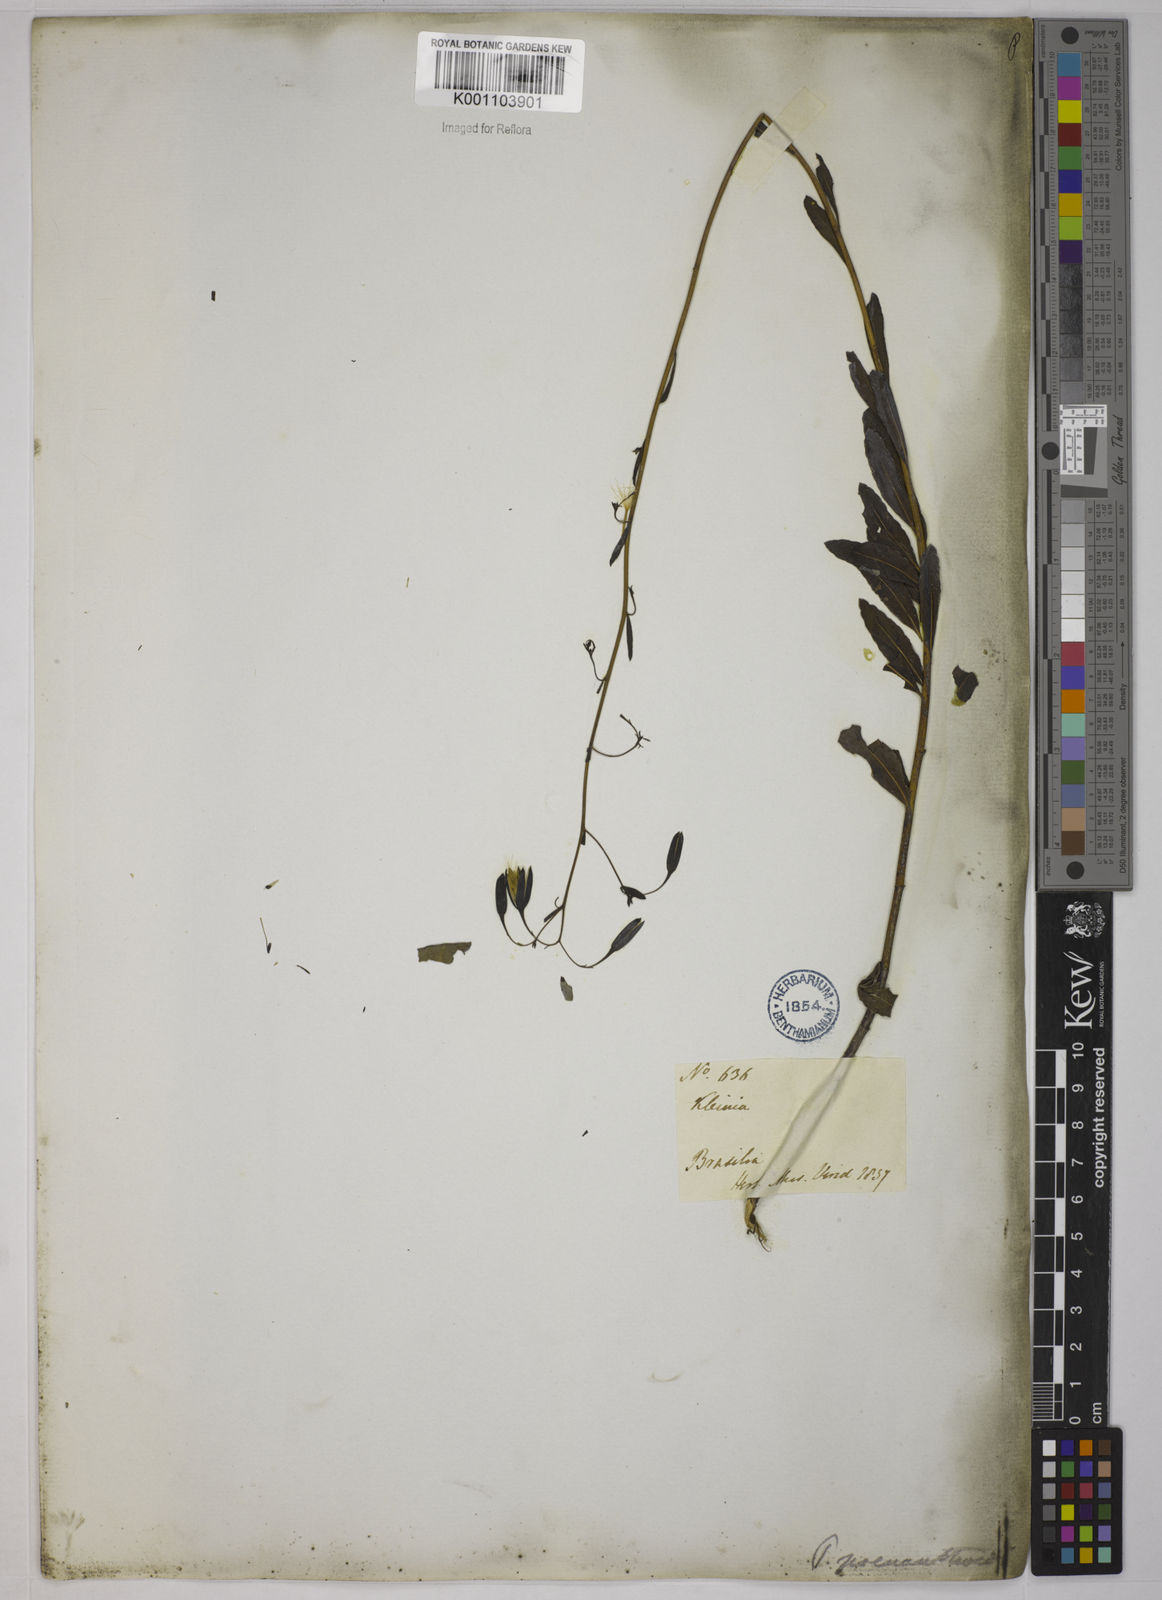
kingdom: Plantae
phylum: Tracheophyta
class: Magnoliopsida
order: Asterales
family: Asteraceae
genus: Porophyllum
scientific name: Porophyllum obscurum
